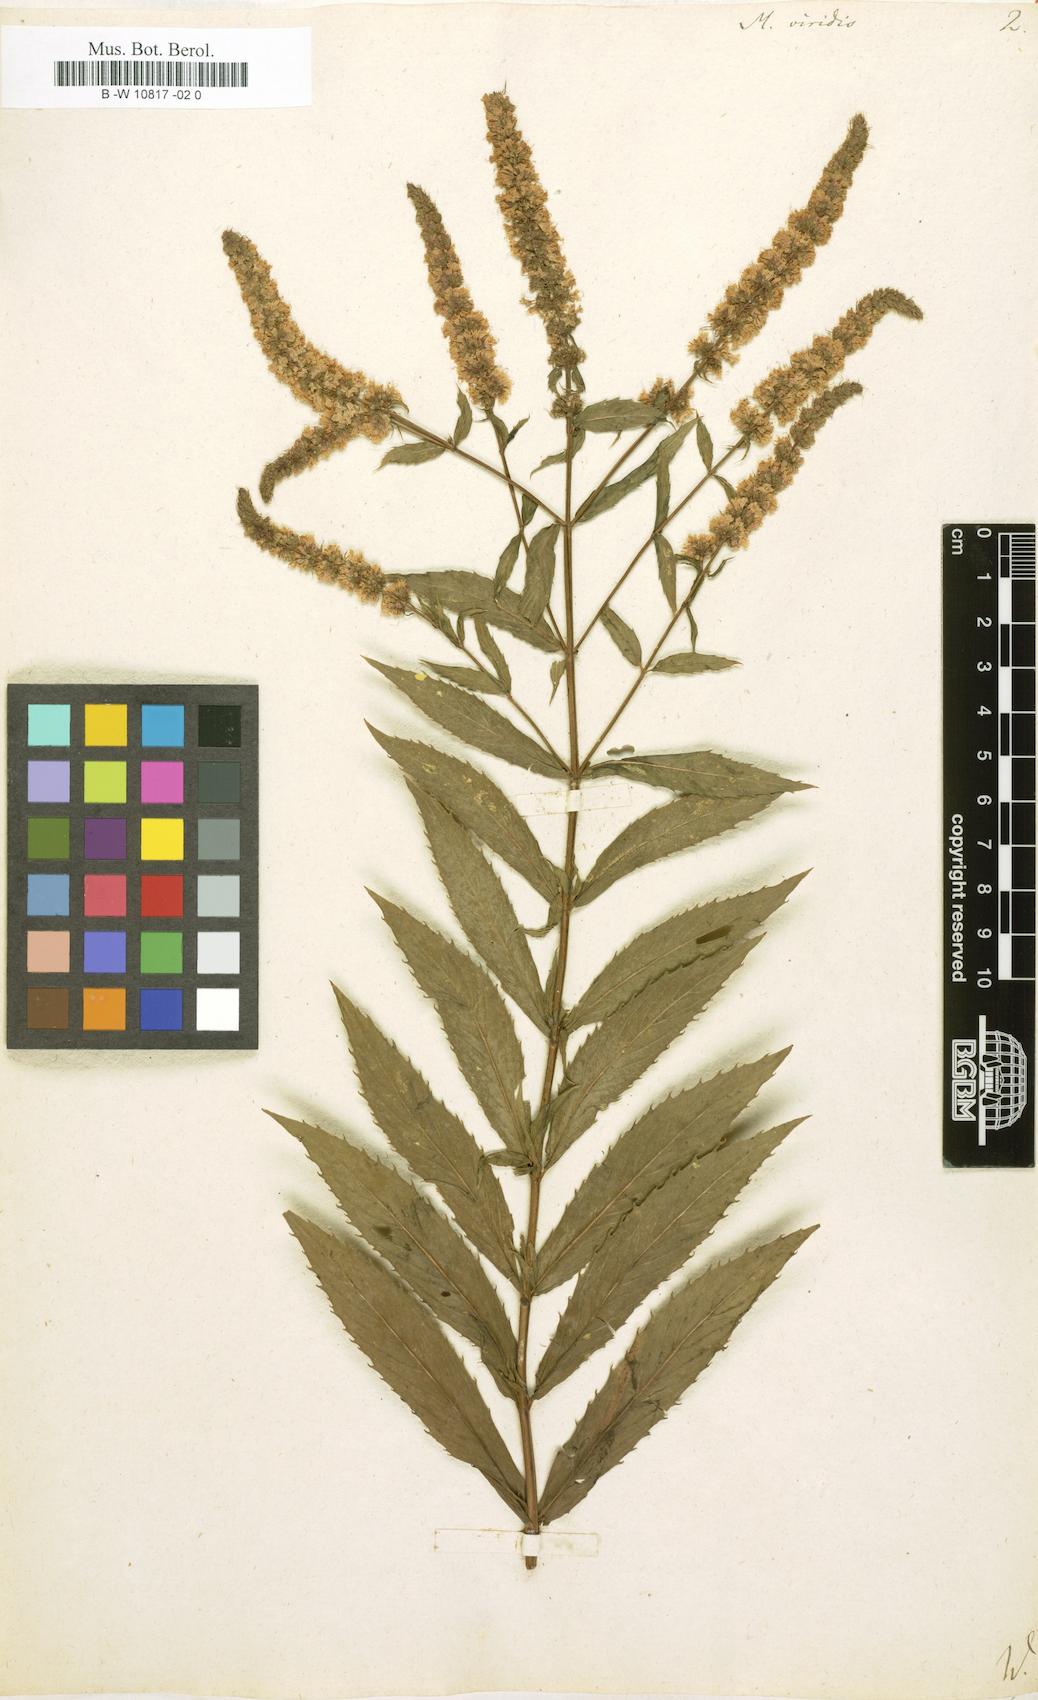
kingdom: Plantae
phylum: Tracheophyta
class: Magnoliopsida
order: Lamiales
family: Lamiaceae
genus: Mentha
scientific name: Mentha spicata
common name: Spearmint
